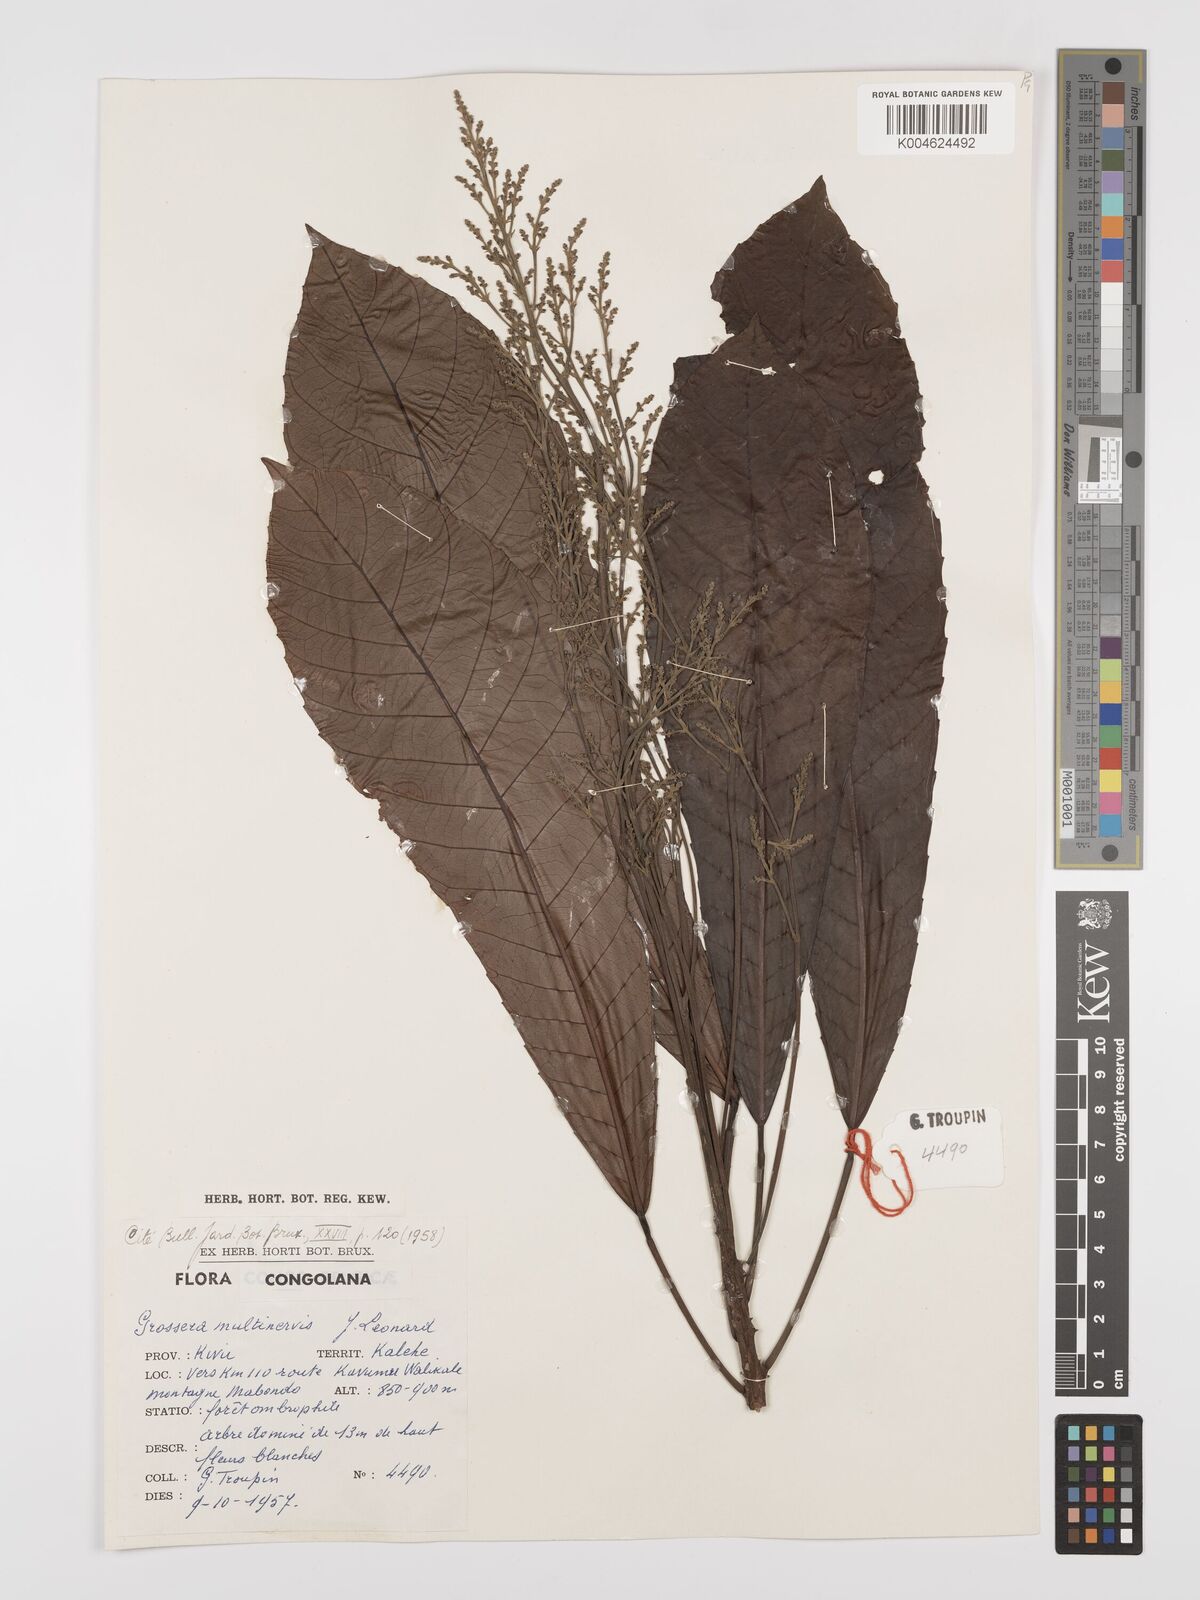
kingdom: Plantae
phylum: Tracheophyta
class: Magnoliopsida
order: Malpighiales
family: Euphorbiaceae
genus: Grossera
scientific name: Grossera multinervis
